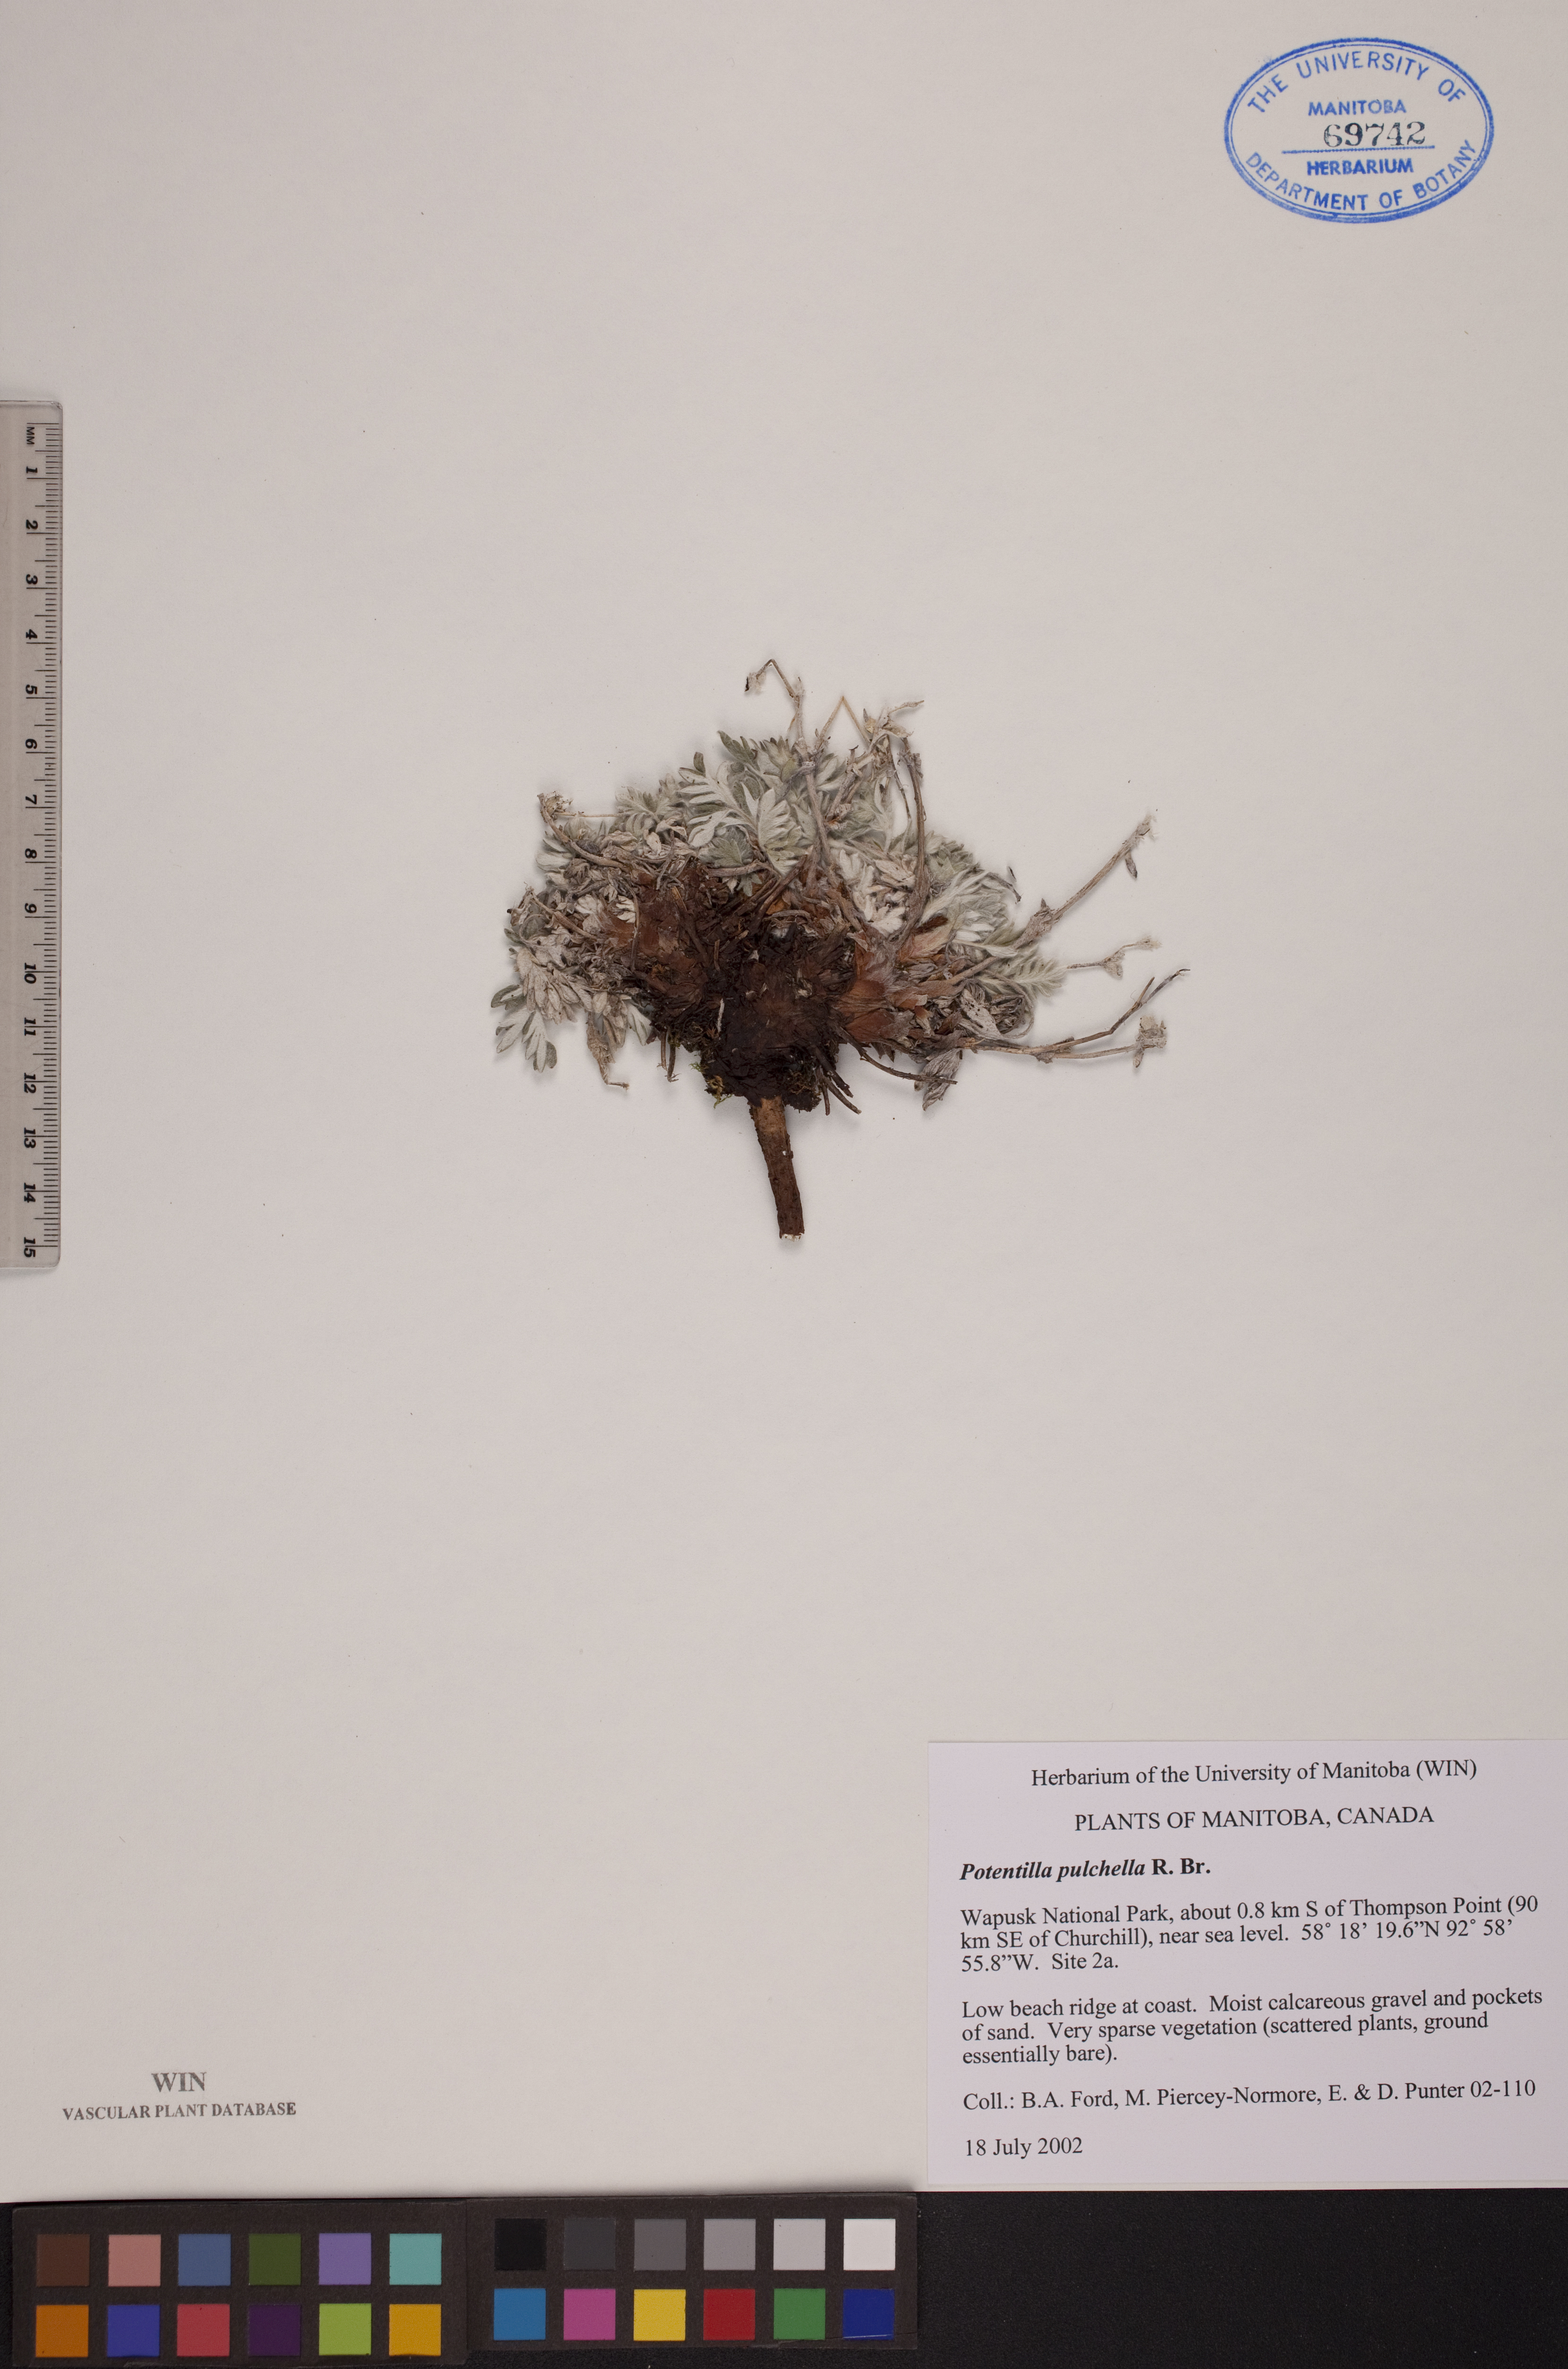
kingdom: Plantae
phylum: Tracheophyta
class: Magnoliopsida
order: Rosales
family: Rosaceae
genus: Potentilla
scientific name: Potentilla pulchella
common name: Pretty cinquefoil
